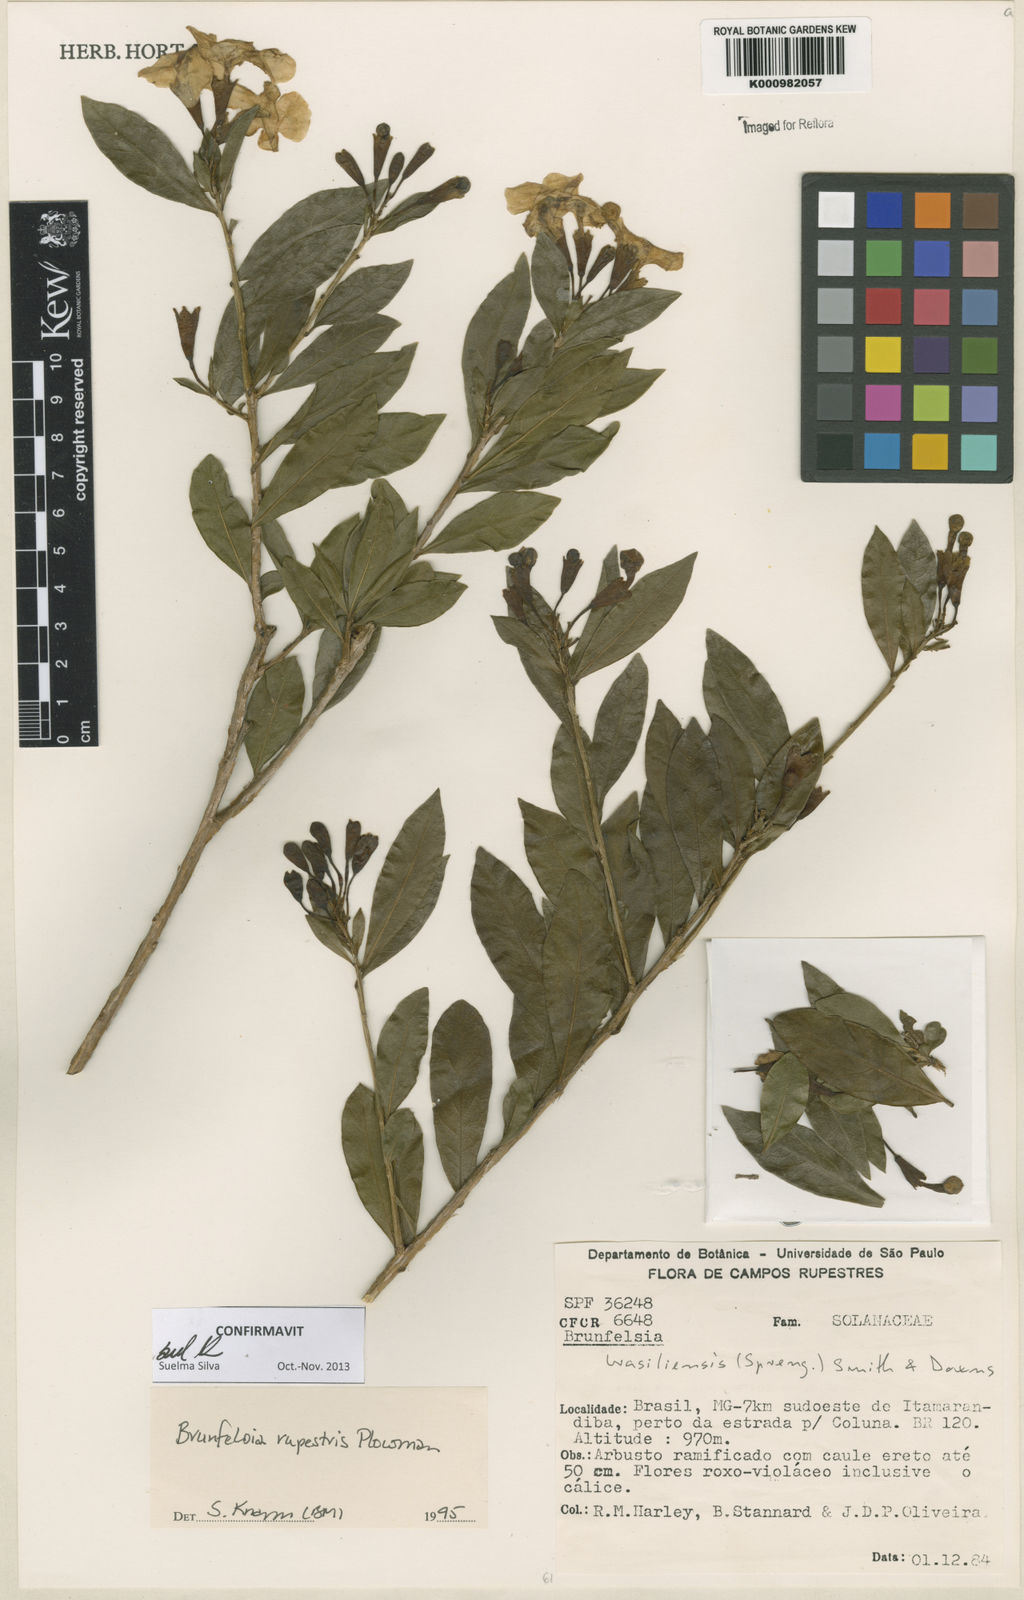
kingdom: Plantae
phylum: Tracheophyta
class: Magnoliopsida
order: Solanales
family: Solanaceae
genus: Brunfelsia
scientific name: Brunfelsia rupestris
